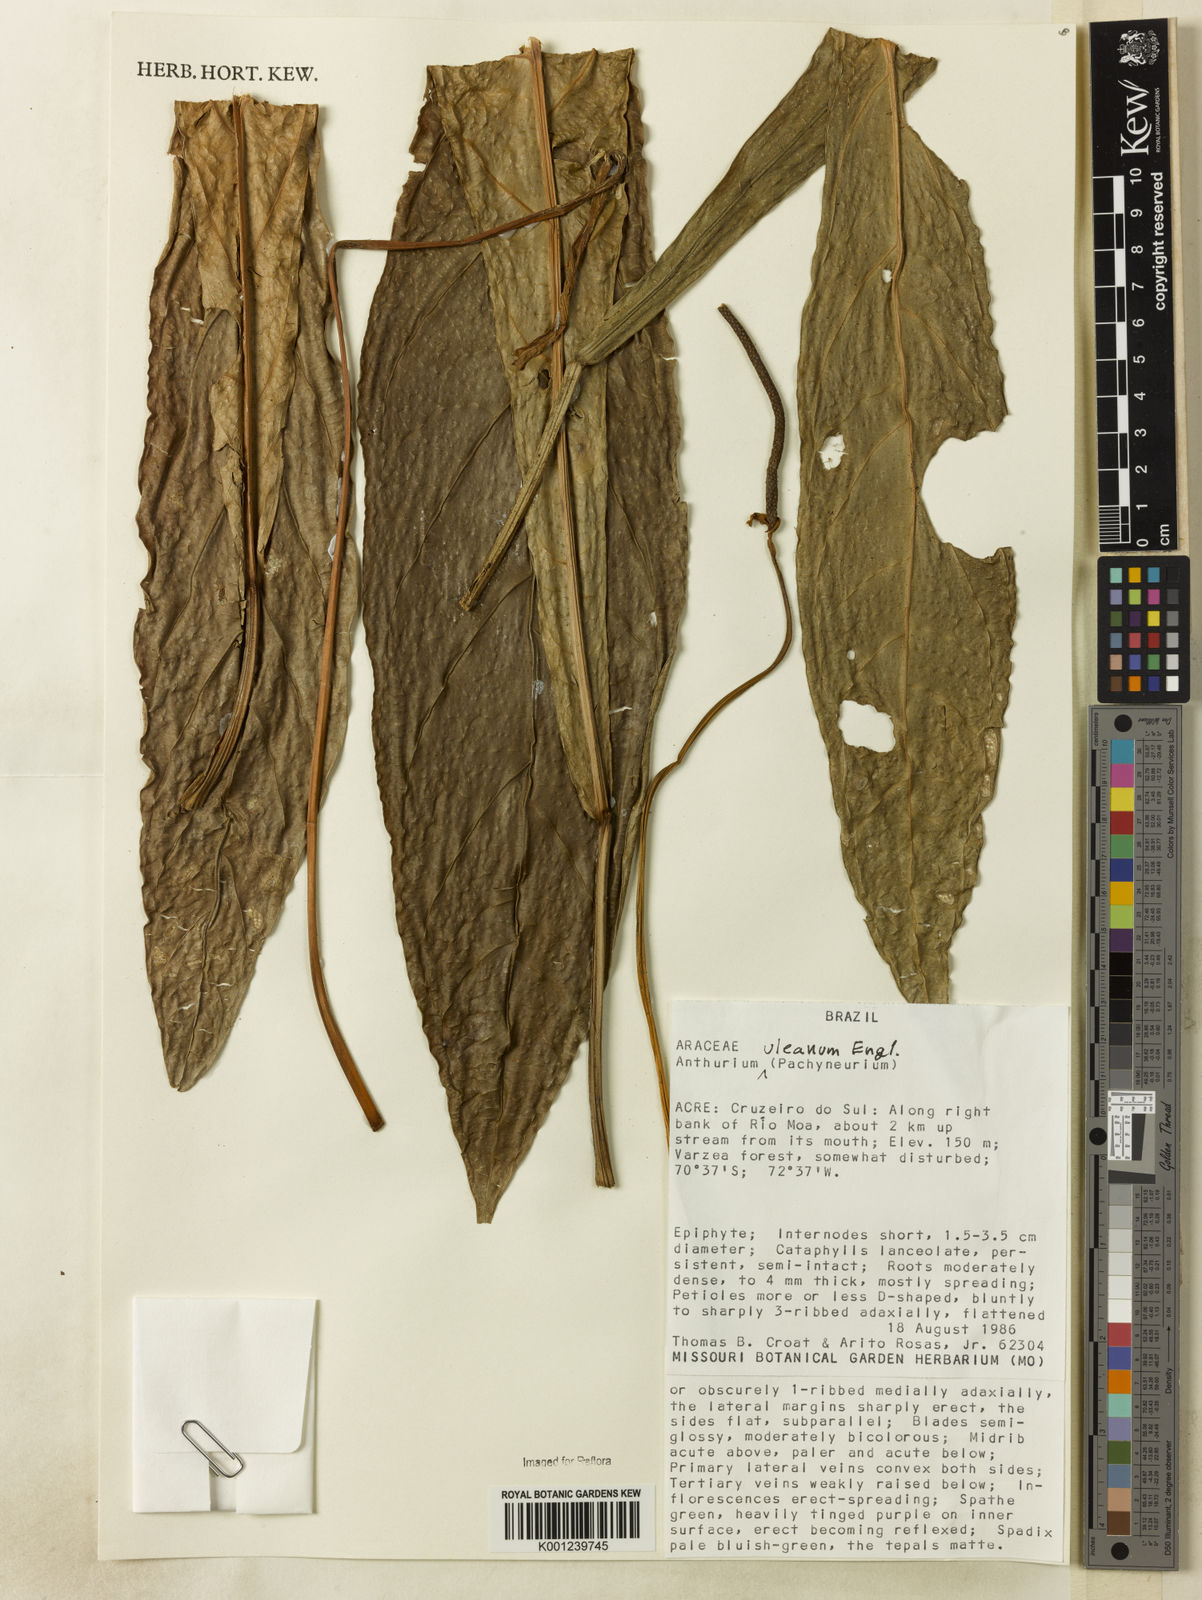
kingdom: Plantae
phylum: Tracheophyta
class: Liliopsida
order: Alismatales
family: Araceae
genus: Anthurium
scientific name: Anthurium uleanum
